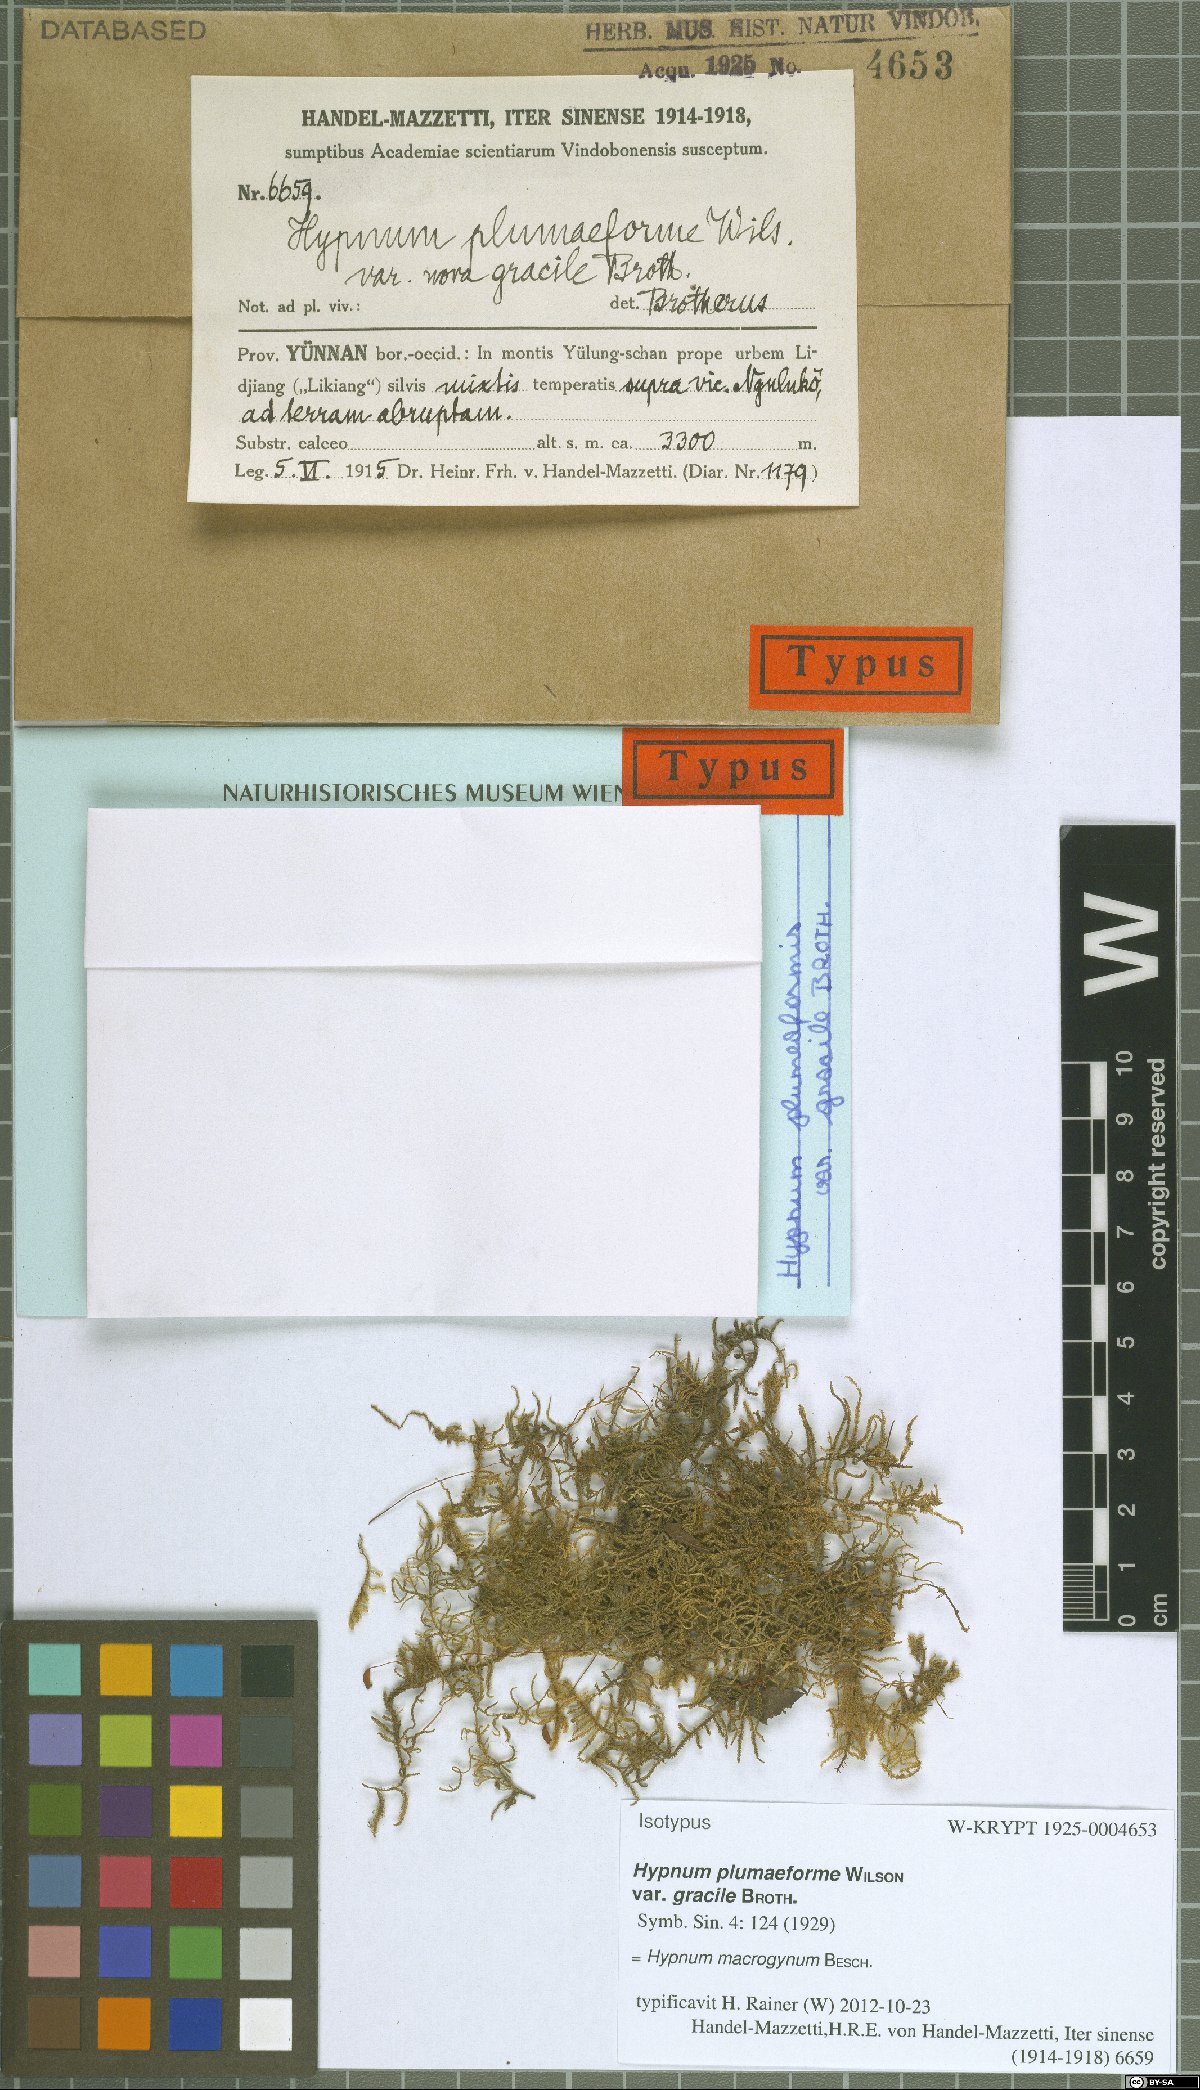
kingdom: Plantae
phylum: Bryophyta
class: Bryopsida
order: Hypnales
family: Pylaisiaceae
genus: Calohypnum
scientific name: Calohypnum macrogynum
